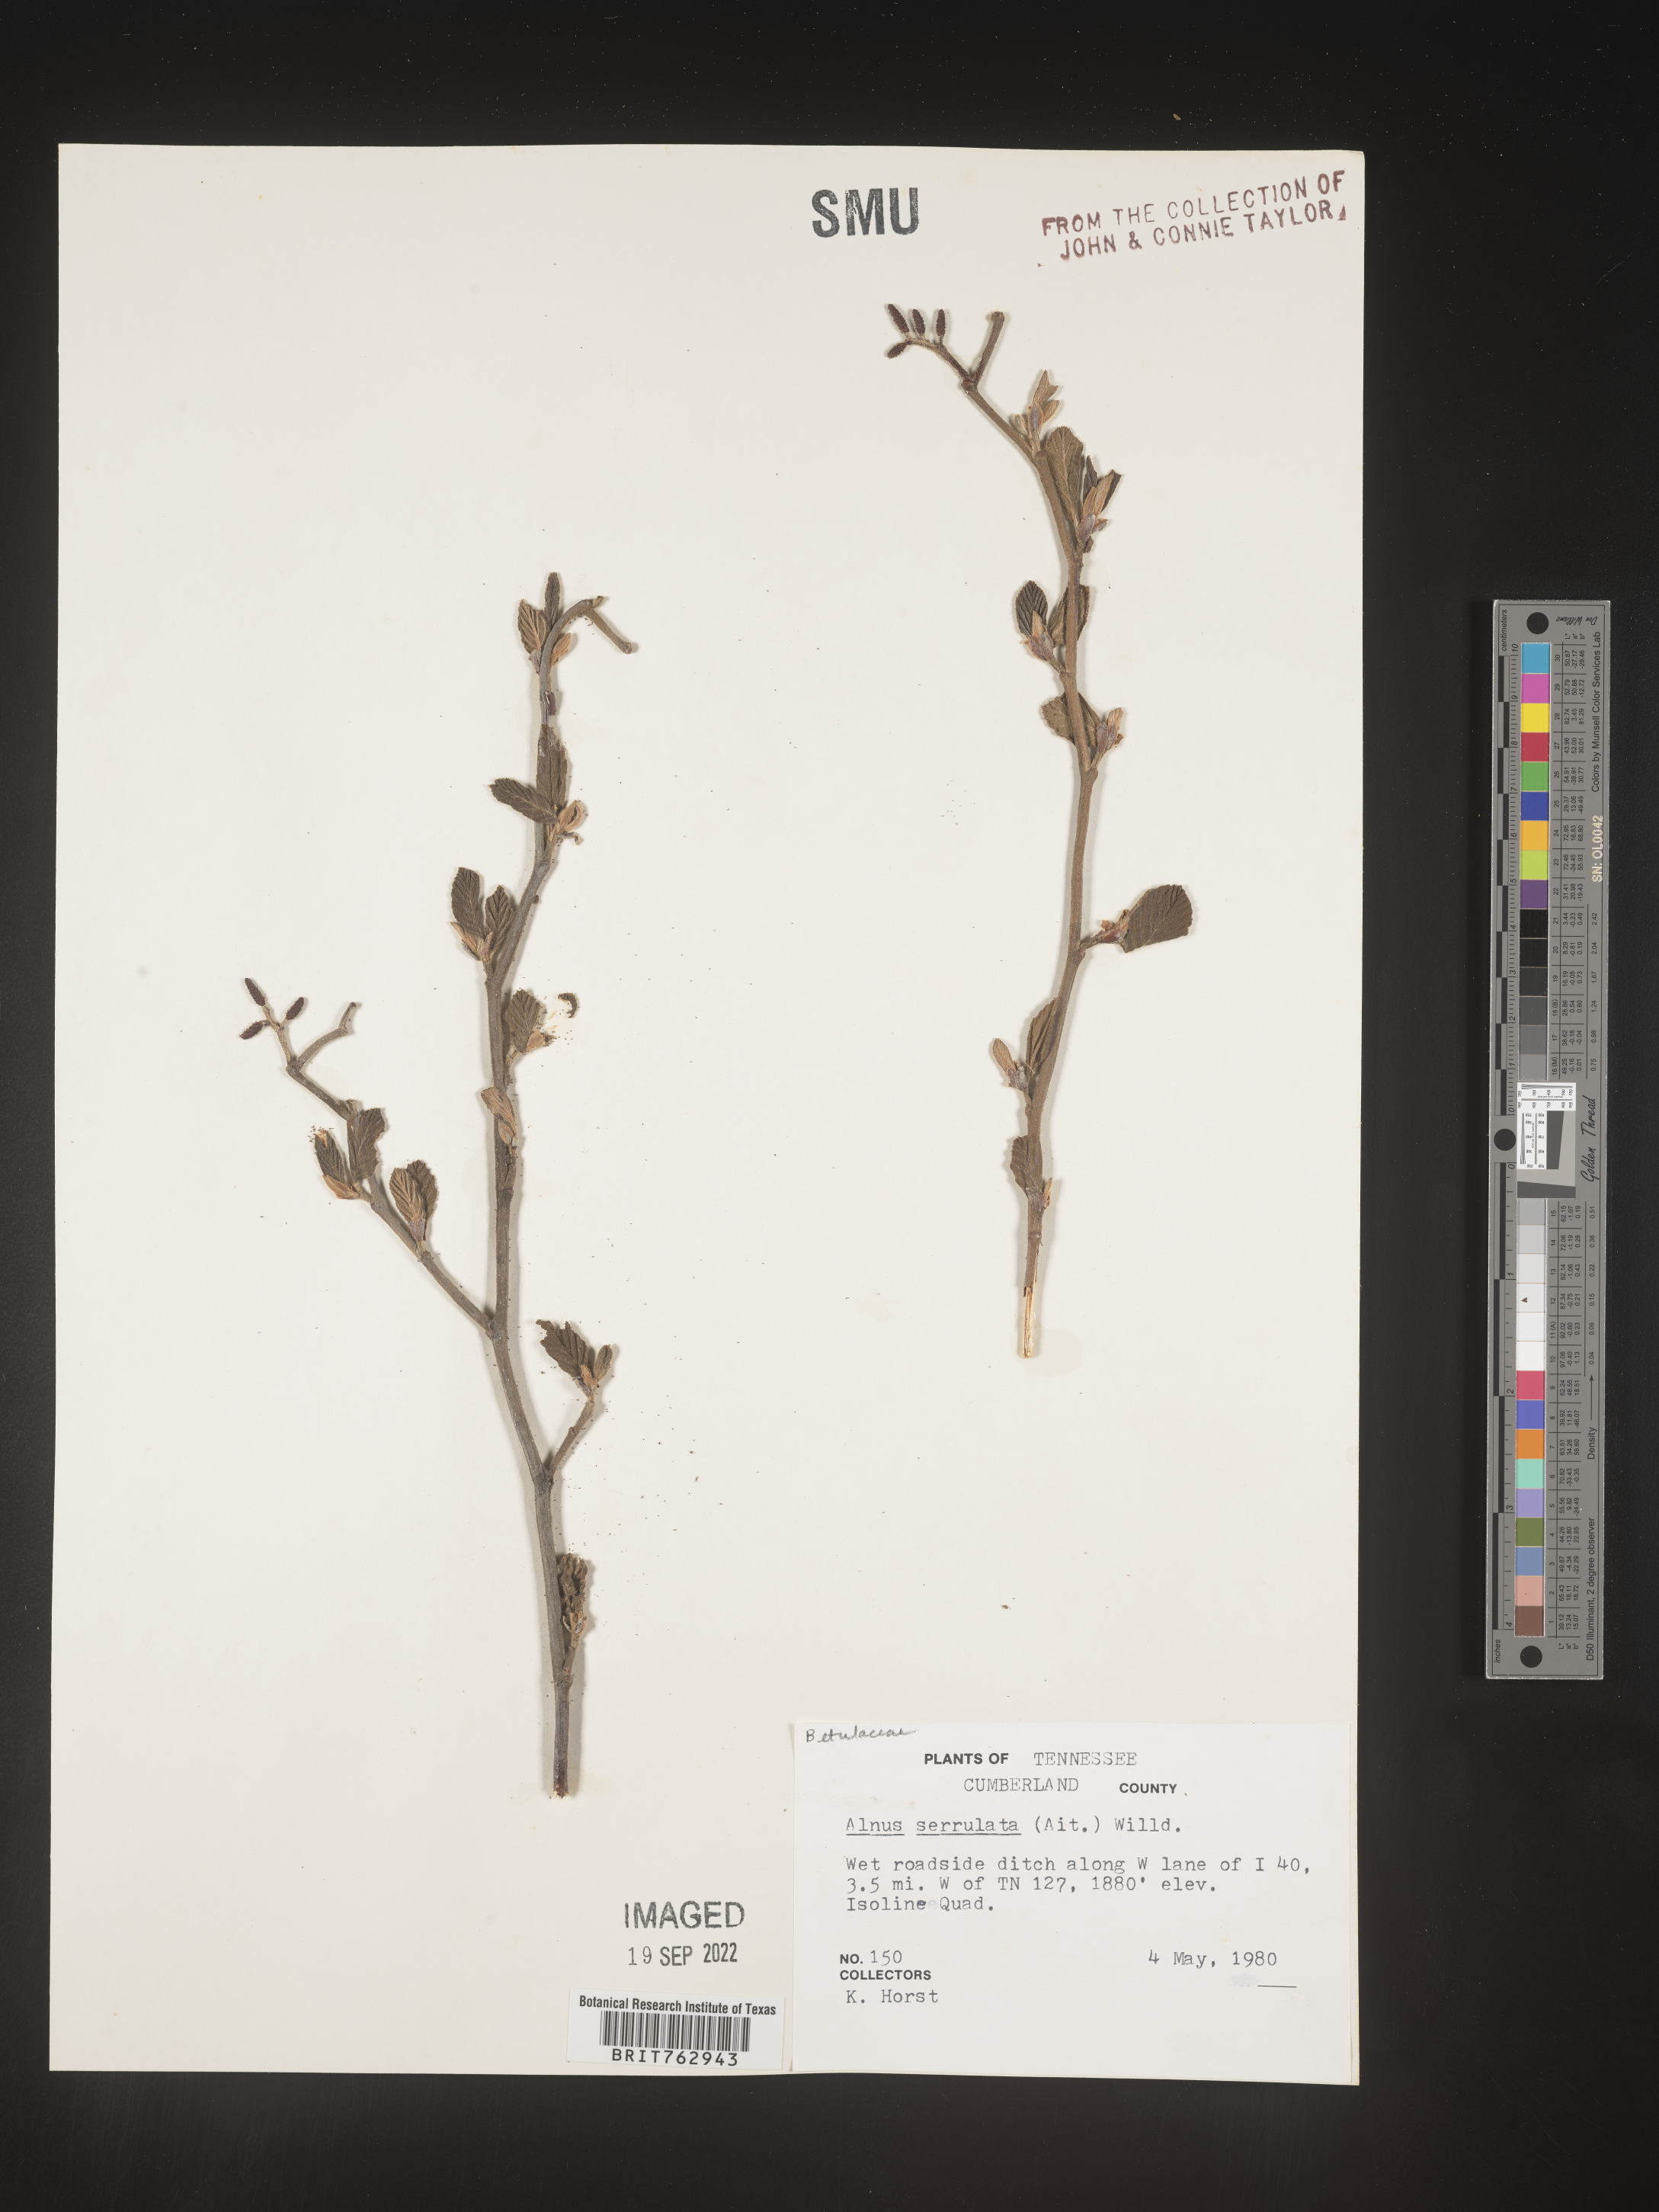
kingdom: Plantae
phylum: Tracheophyta
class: Magnoliopsida
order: Fagales
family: Betulaceae
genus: Alnus
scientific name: Alnus serrulata
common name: Hazel alder
